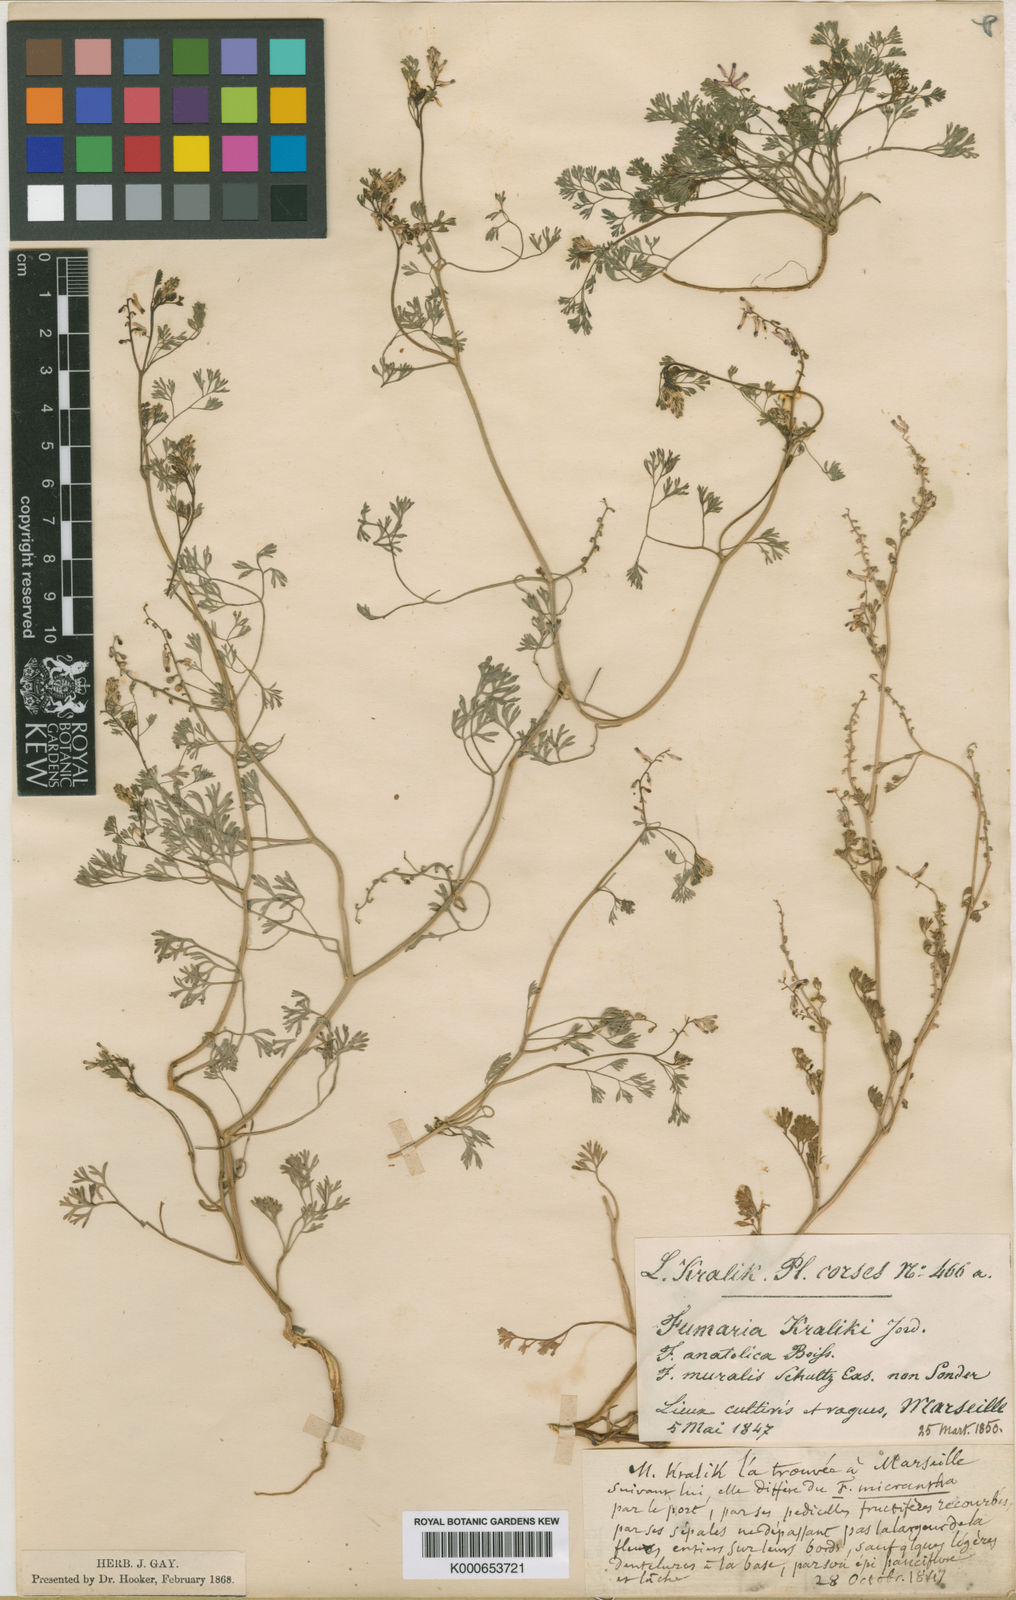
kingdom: Plantae
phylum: Tracheophyta
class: Magnoliopsida
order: Ranunculales
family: Papaveraceae
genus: Fumaria
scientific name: Fumaria kralikii
